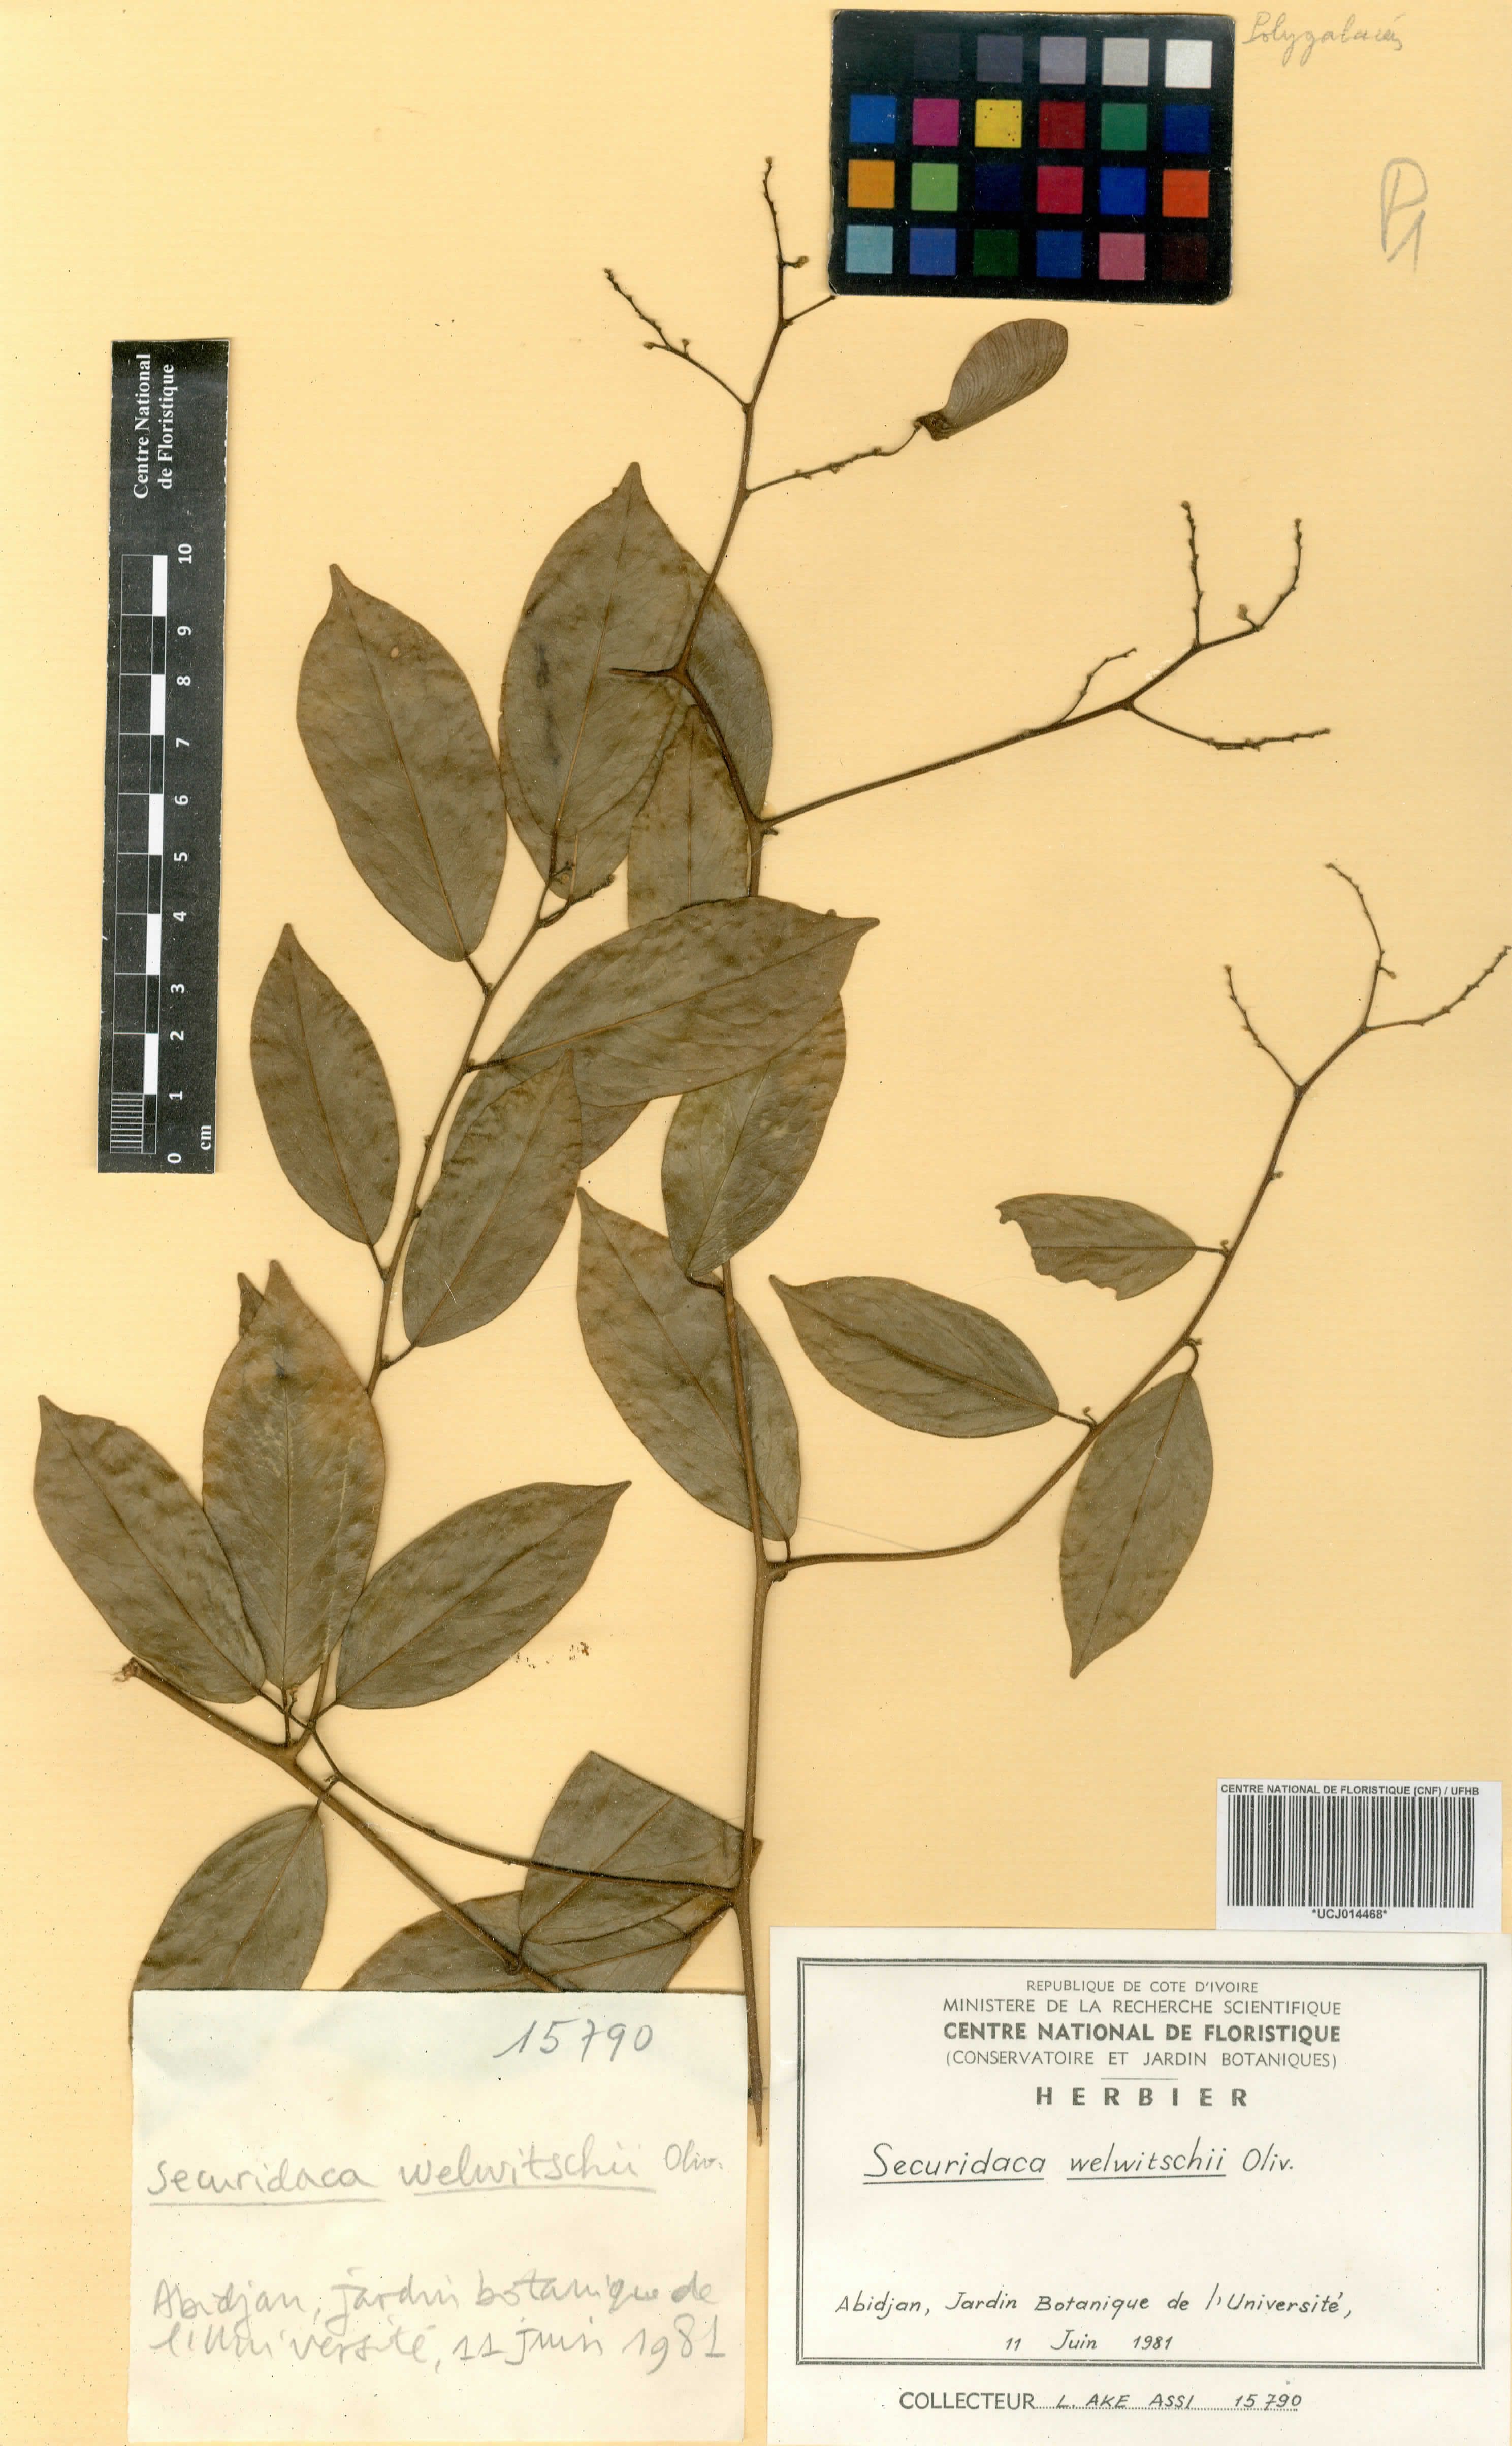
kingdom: Plantae
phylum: Tracheophyta
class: Magnoliopsida
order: Fabales
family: Polygalaceae
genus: Securidaca
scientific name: Securidaca welwitschii
